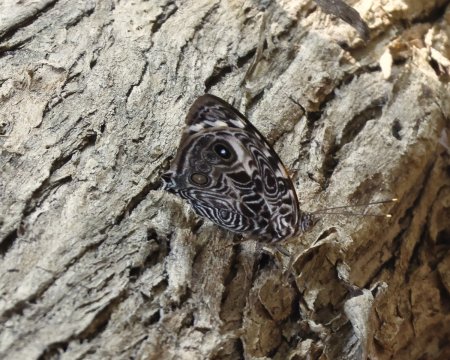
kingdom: Animalia
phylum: Arthropoda
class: Insecta
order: Lepidoptera
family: Nymphalidae
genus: Smyrna
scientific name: Smyrna blomfildia
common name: Blomfild's Beauty
